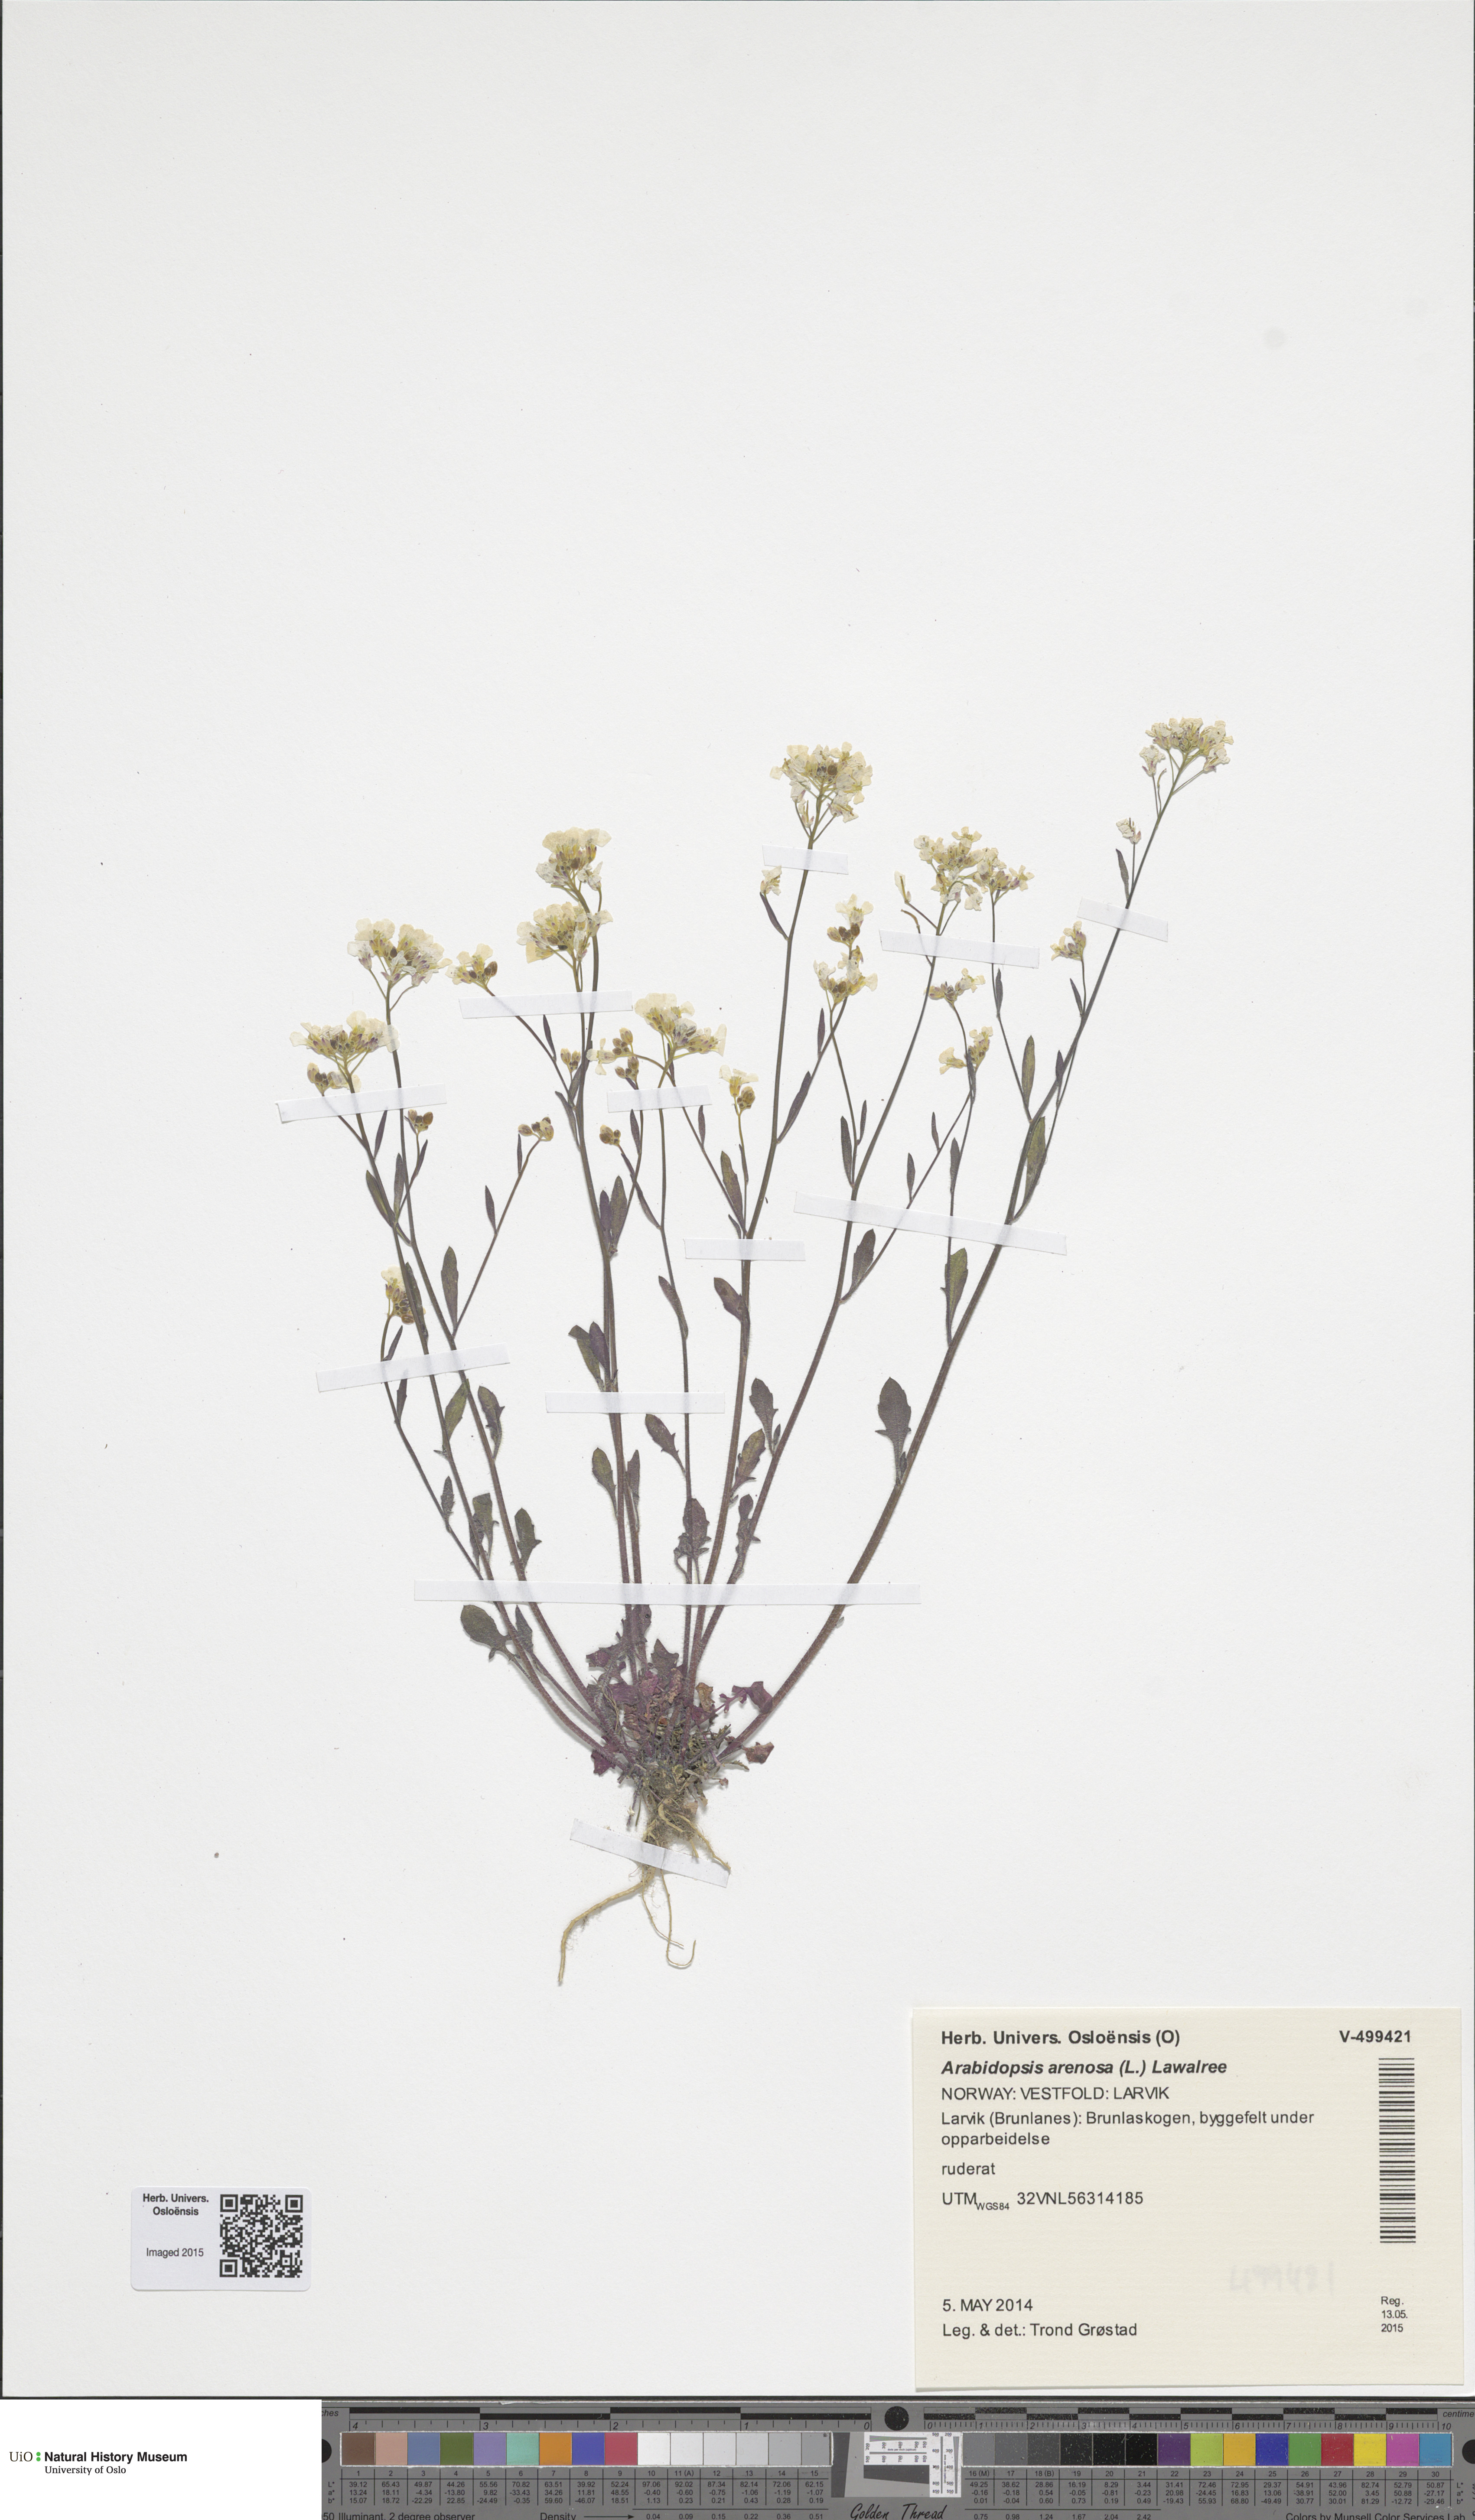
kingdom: Plantae
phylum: Tracheophyta
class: Magnoliopsida
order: Brassicales
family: Brassicaceae
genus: Arabidopsis
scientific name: Arabidopsis arenosa
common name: Sand rock-cress
